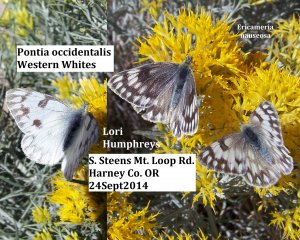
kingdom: Animalia
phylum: Arthropoda
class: Insecta
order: Lepidoptera
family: Pieridae
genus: Pontia
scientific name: Pontia occidentalis
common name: Western White
